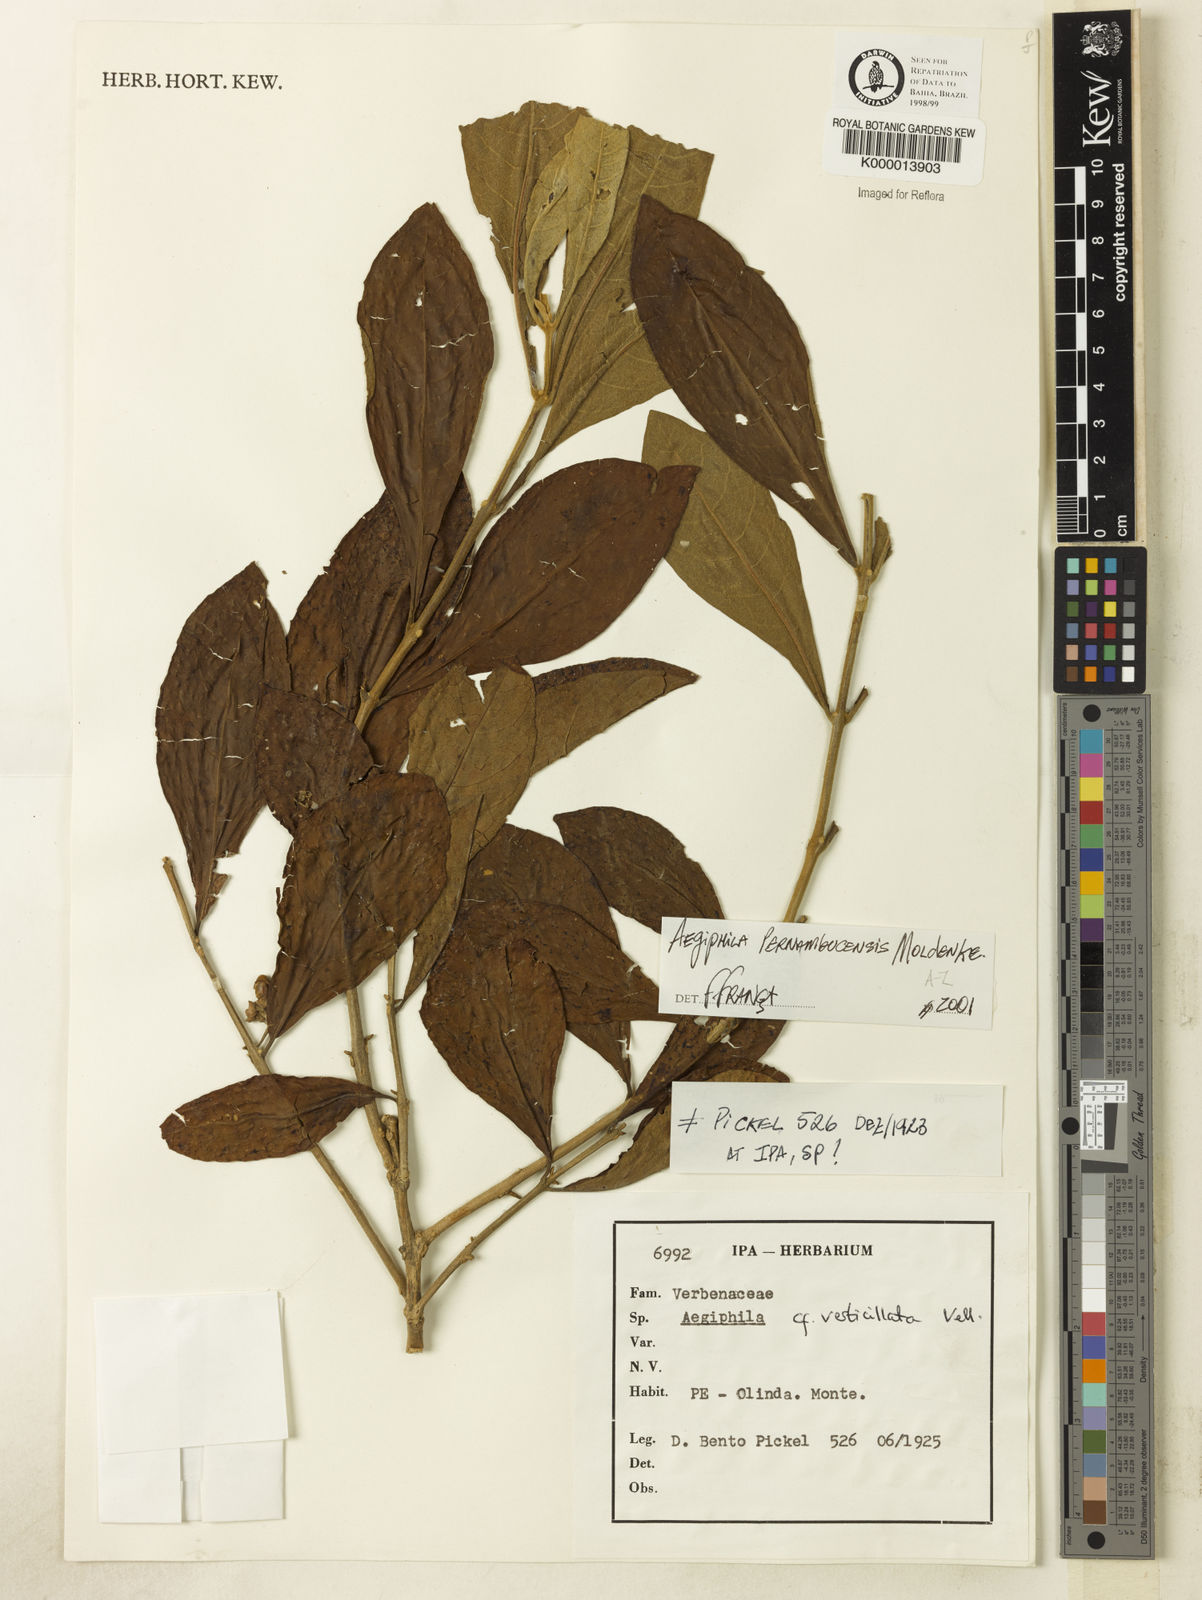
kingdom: Plantae
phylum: Tracheophyta
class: Magnoliopsida
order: Lamiales
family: Lamiaceae
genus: Aegiphila
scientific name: Aegiphila verticillata
